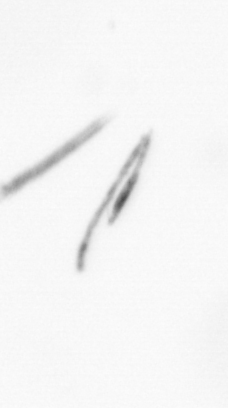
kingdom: Chromista
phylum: Ochrophyta
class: Bacillariophyceae
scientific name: Bacillariophyceae
